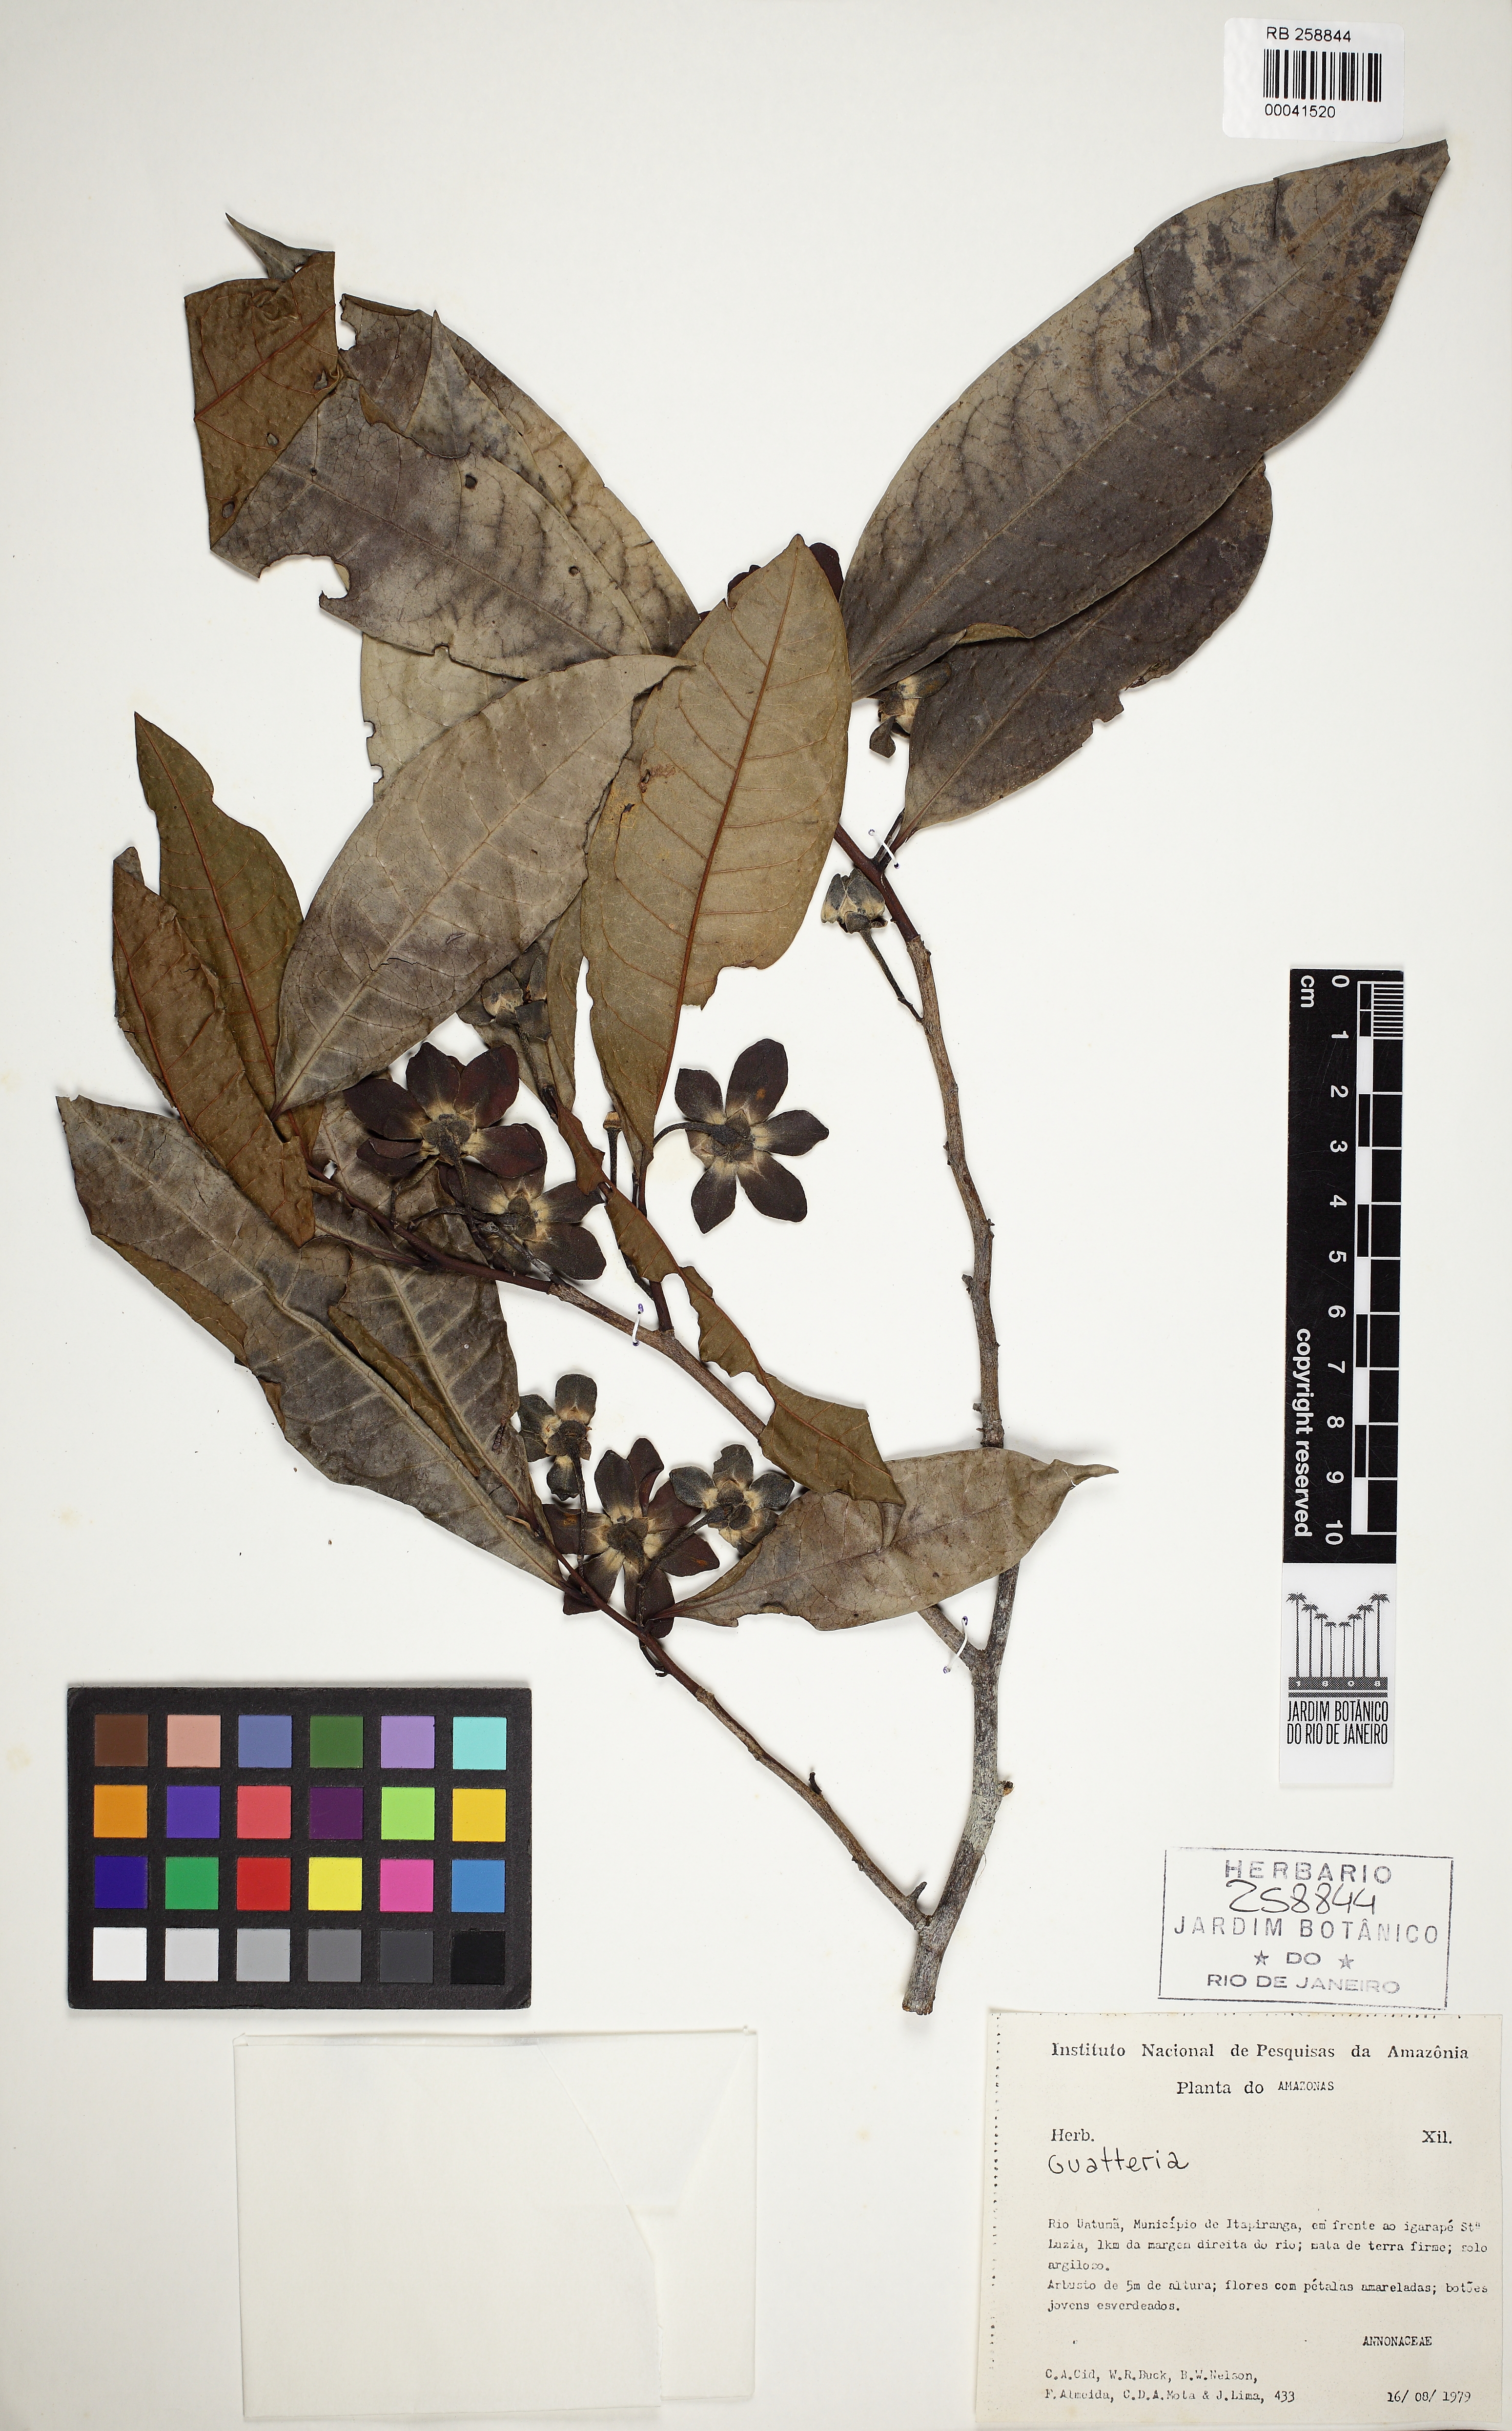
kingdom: Plantae
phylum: Tracheophyta
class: Magnoliopsida
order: Magnoliales
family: Annonaceae
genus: Guatteria
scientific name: Guatteria inundata
